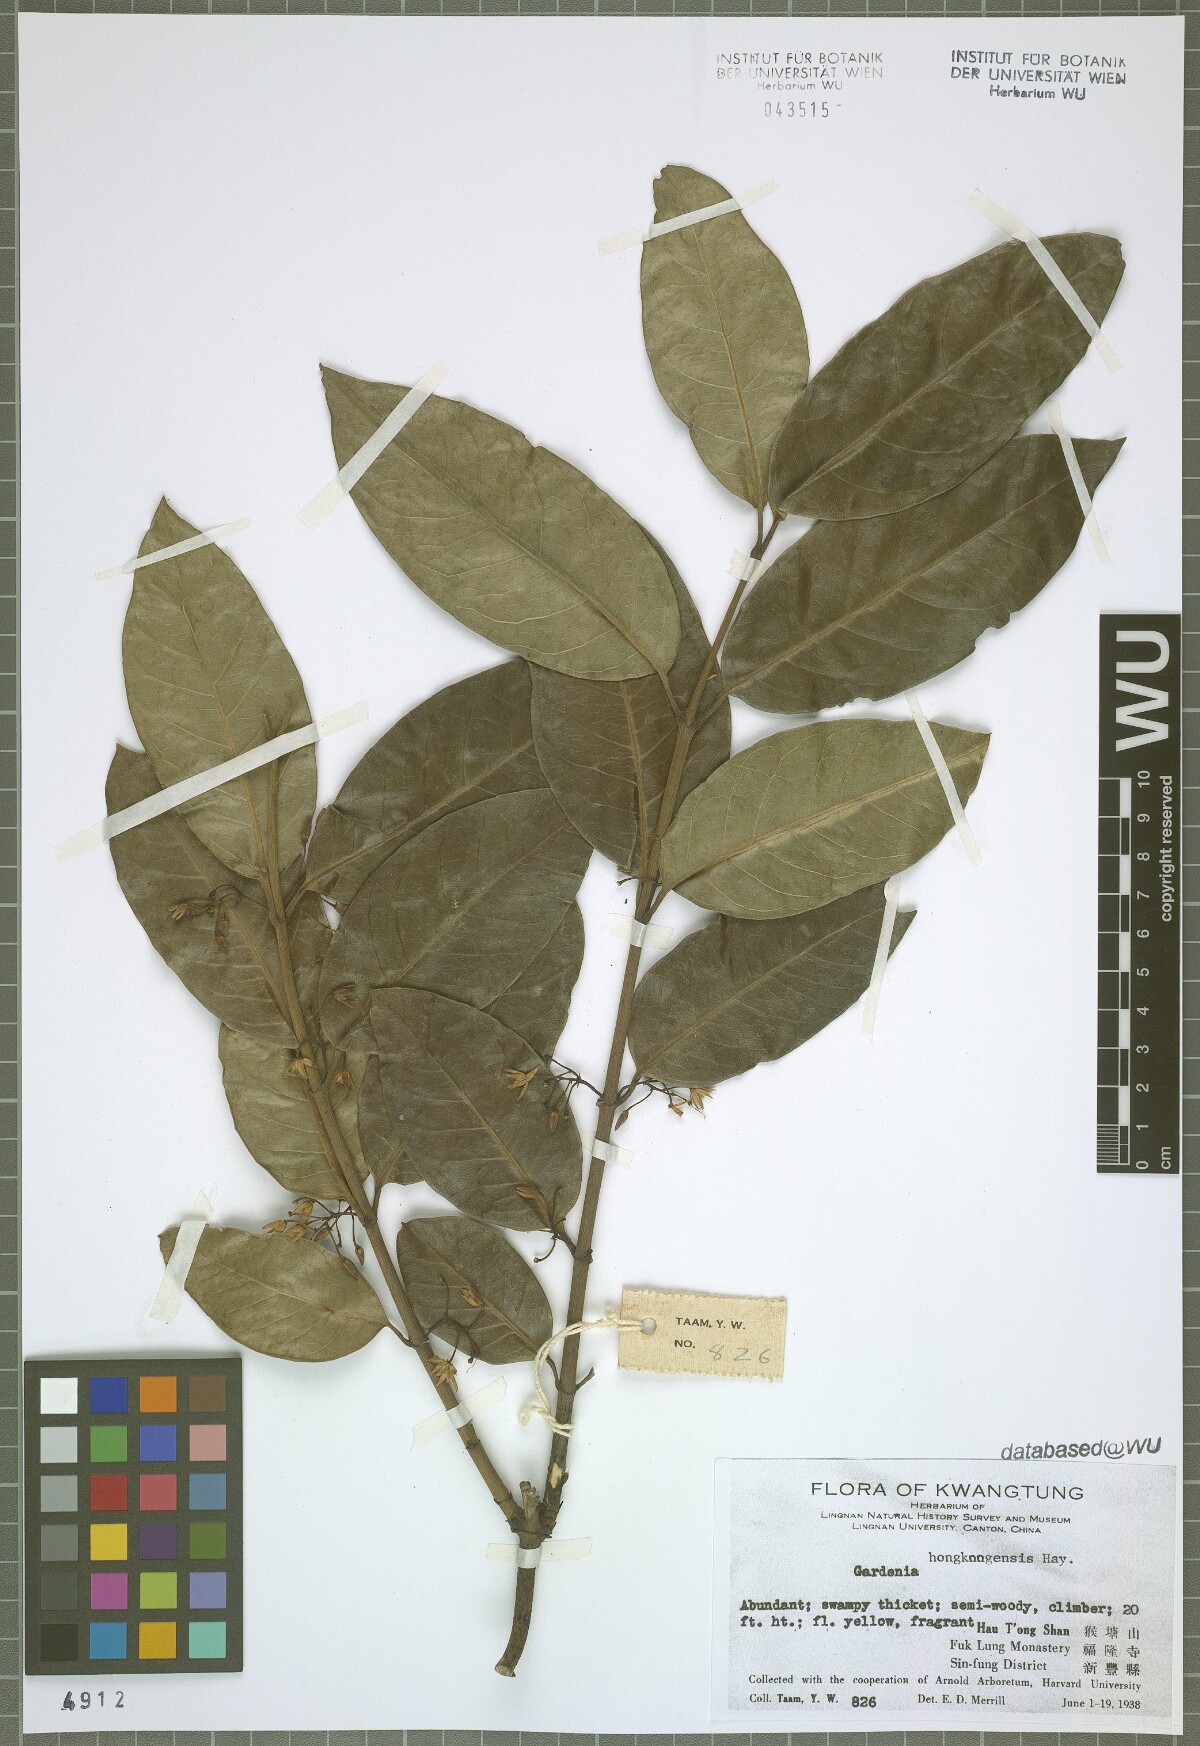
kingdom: Plantae
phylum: Tracheophyta
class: Magnoliopsida
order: Gentianales
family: Rubiaceae
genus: Gardenia
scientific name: Gardenia
